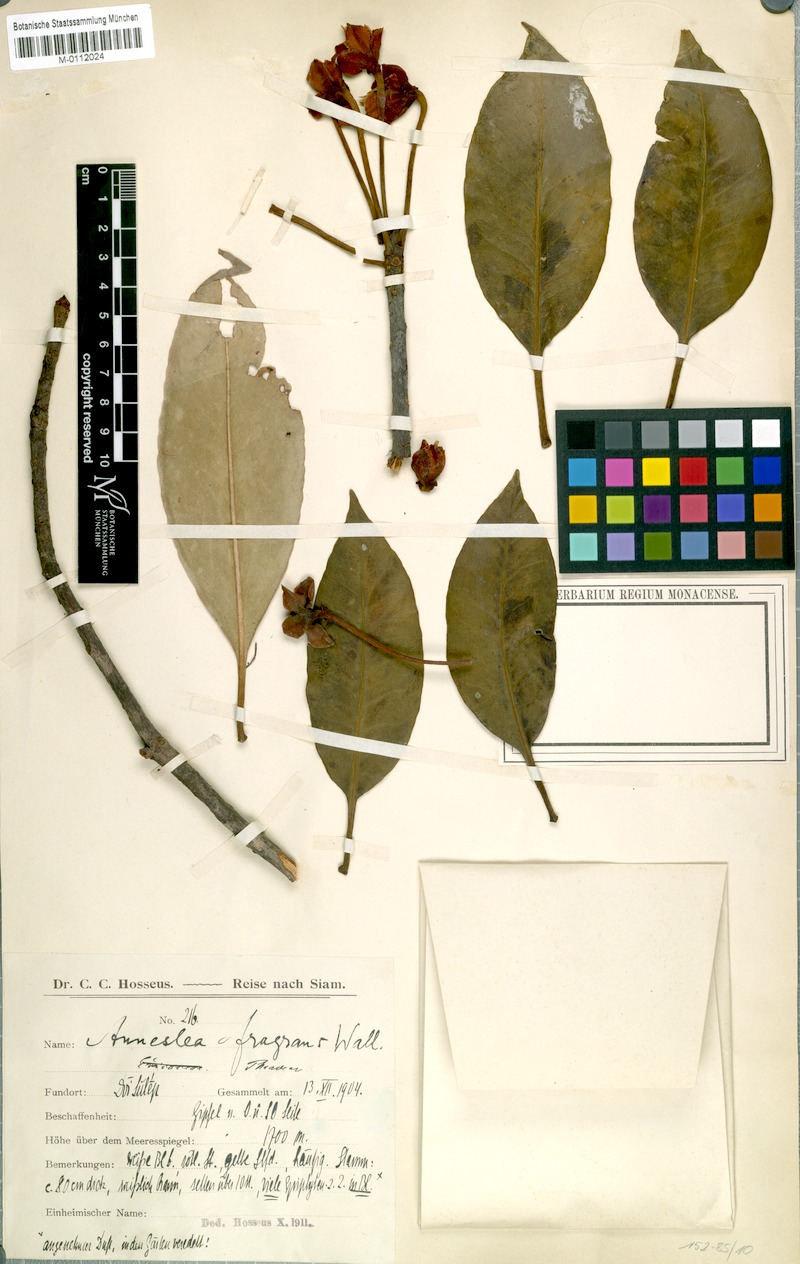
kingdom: Plantae
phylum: Tracheophyta
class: Magnoliopsida
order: Ericales
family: Pentaphylacaceae
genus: Anneslea
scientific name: Anneslea fragrans
